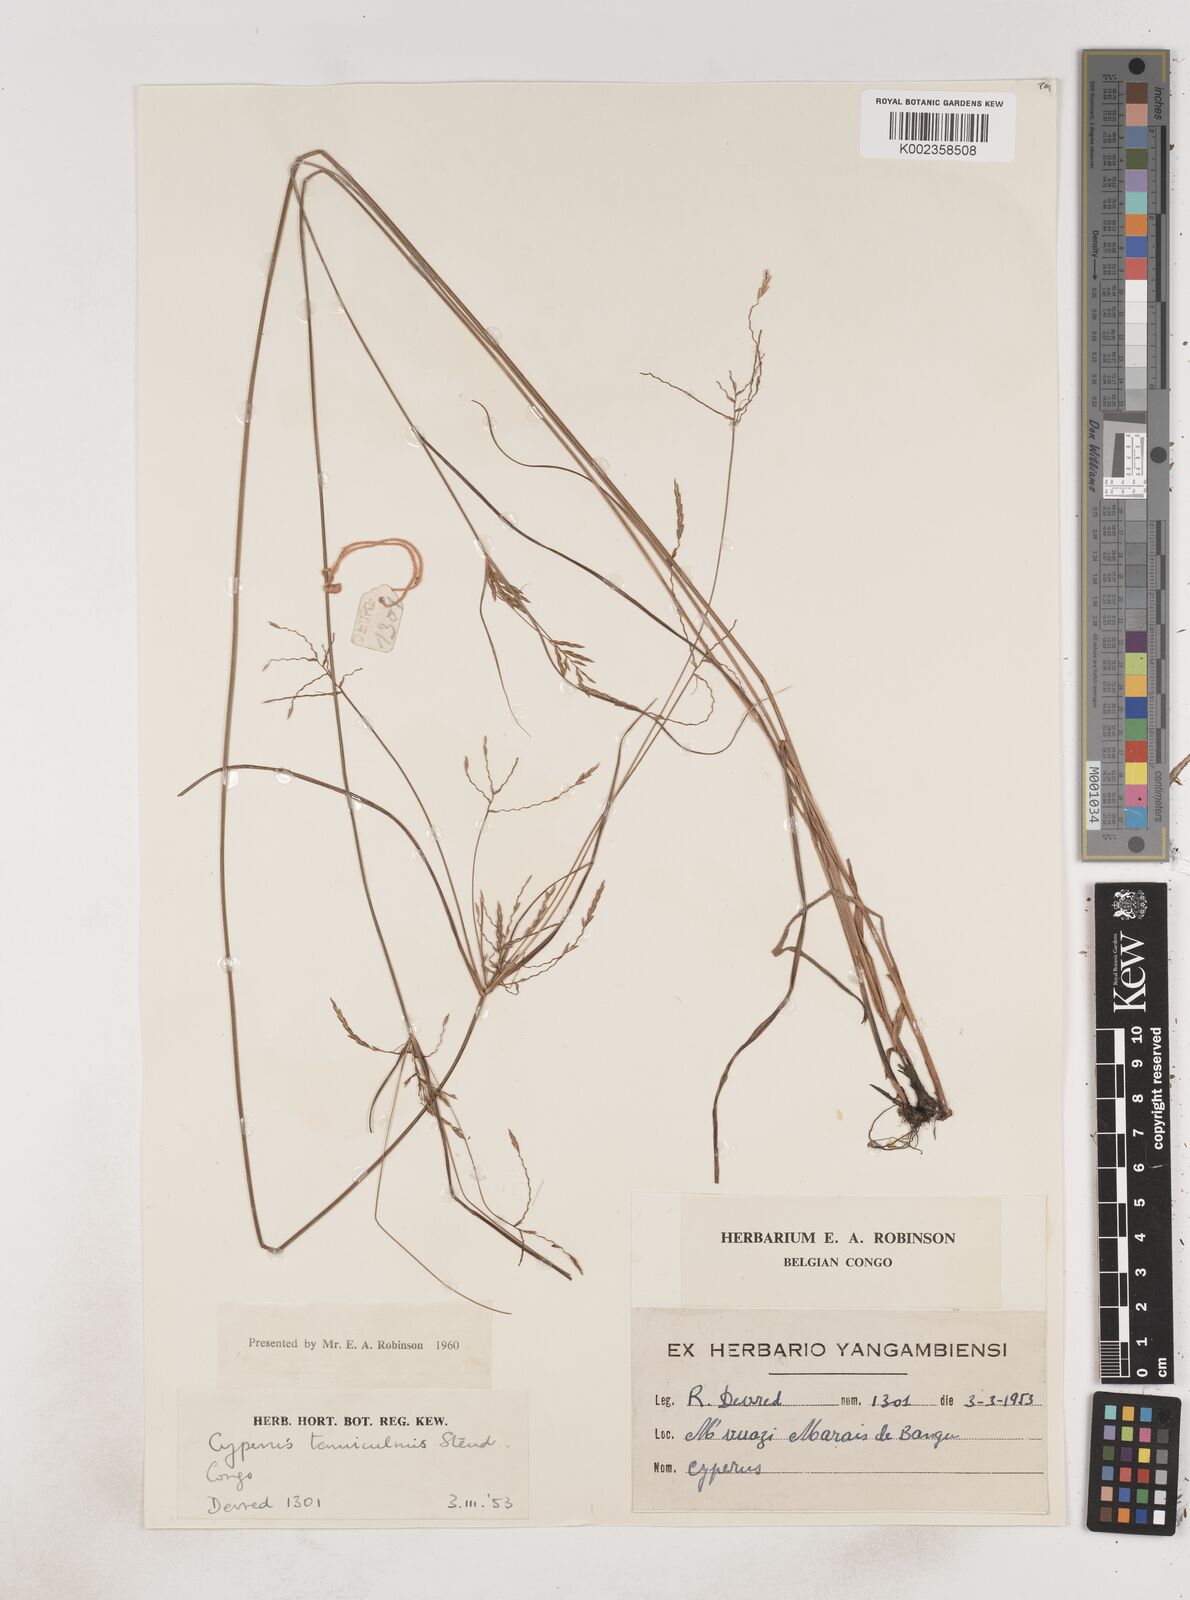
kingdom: Plantae
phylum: Tracheophyta
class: Liliopsida
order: Poales
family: Cyperaceae
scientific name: Cyperaceae
